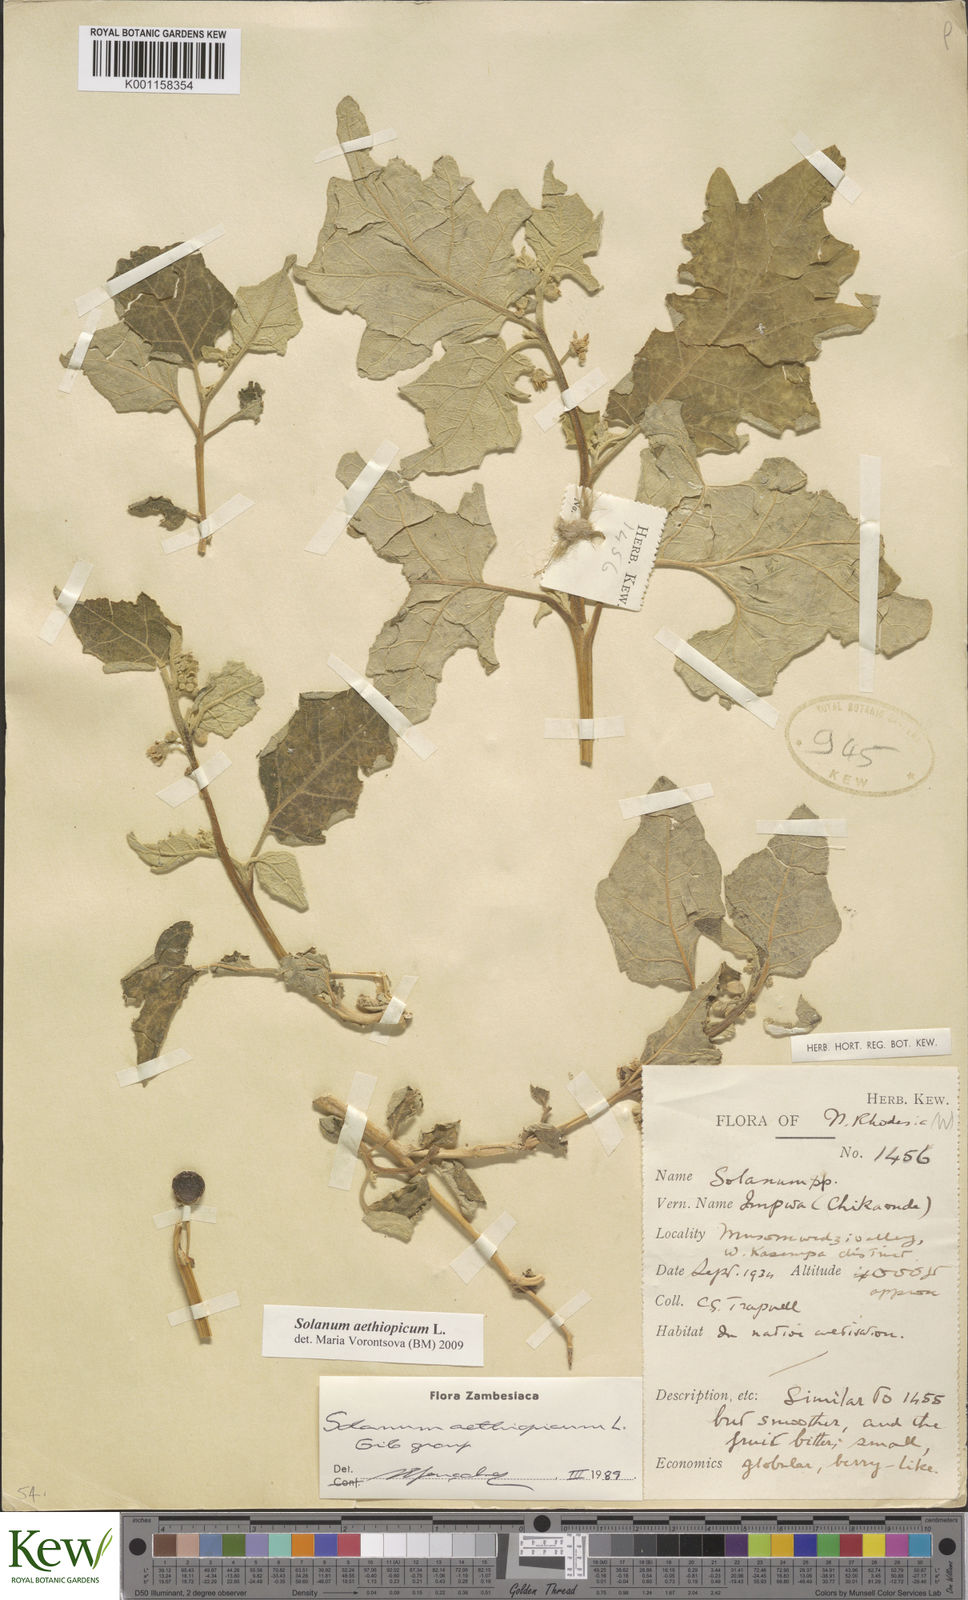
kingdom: Plantae
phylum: Tracheophyta
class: Magnoliopsida
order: Solanales
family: Solanaceae
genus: Solanum
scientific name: Solanum aethiopicum
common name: Gilo
